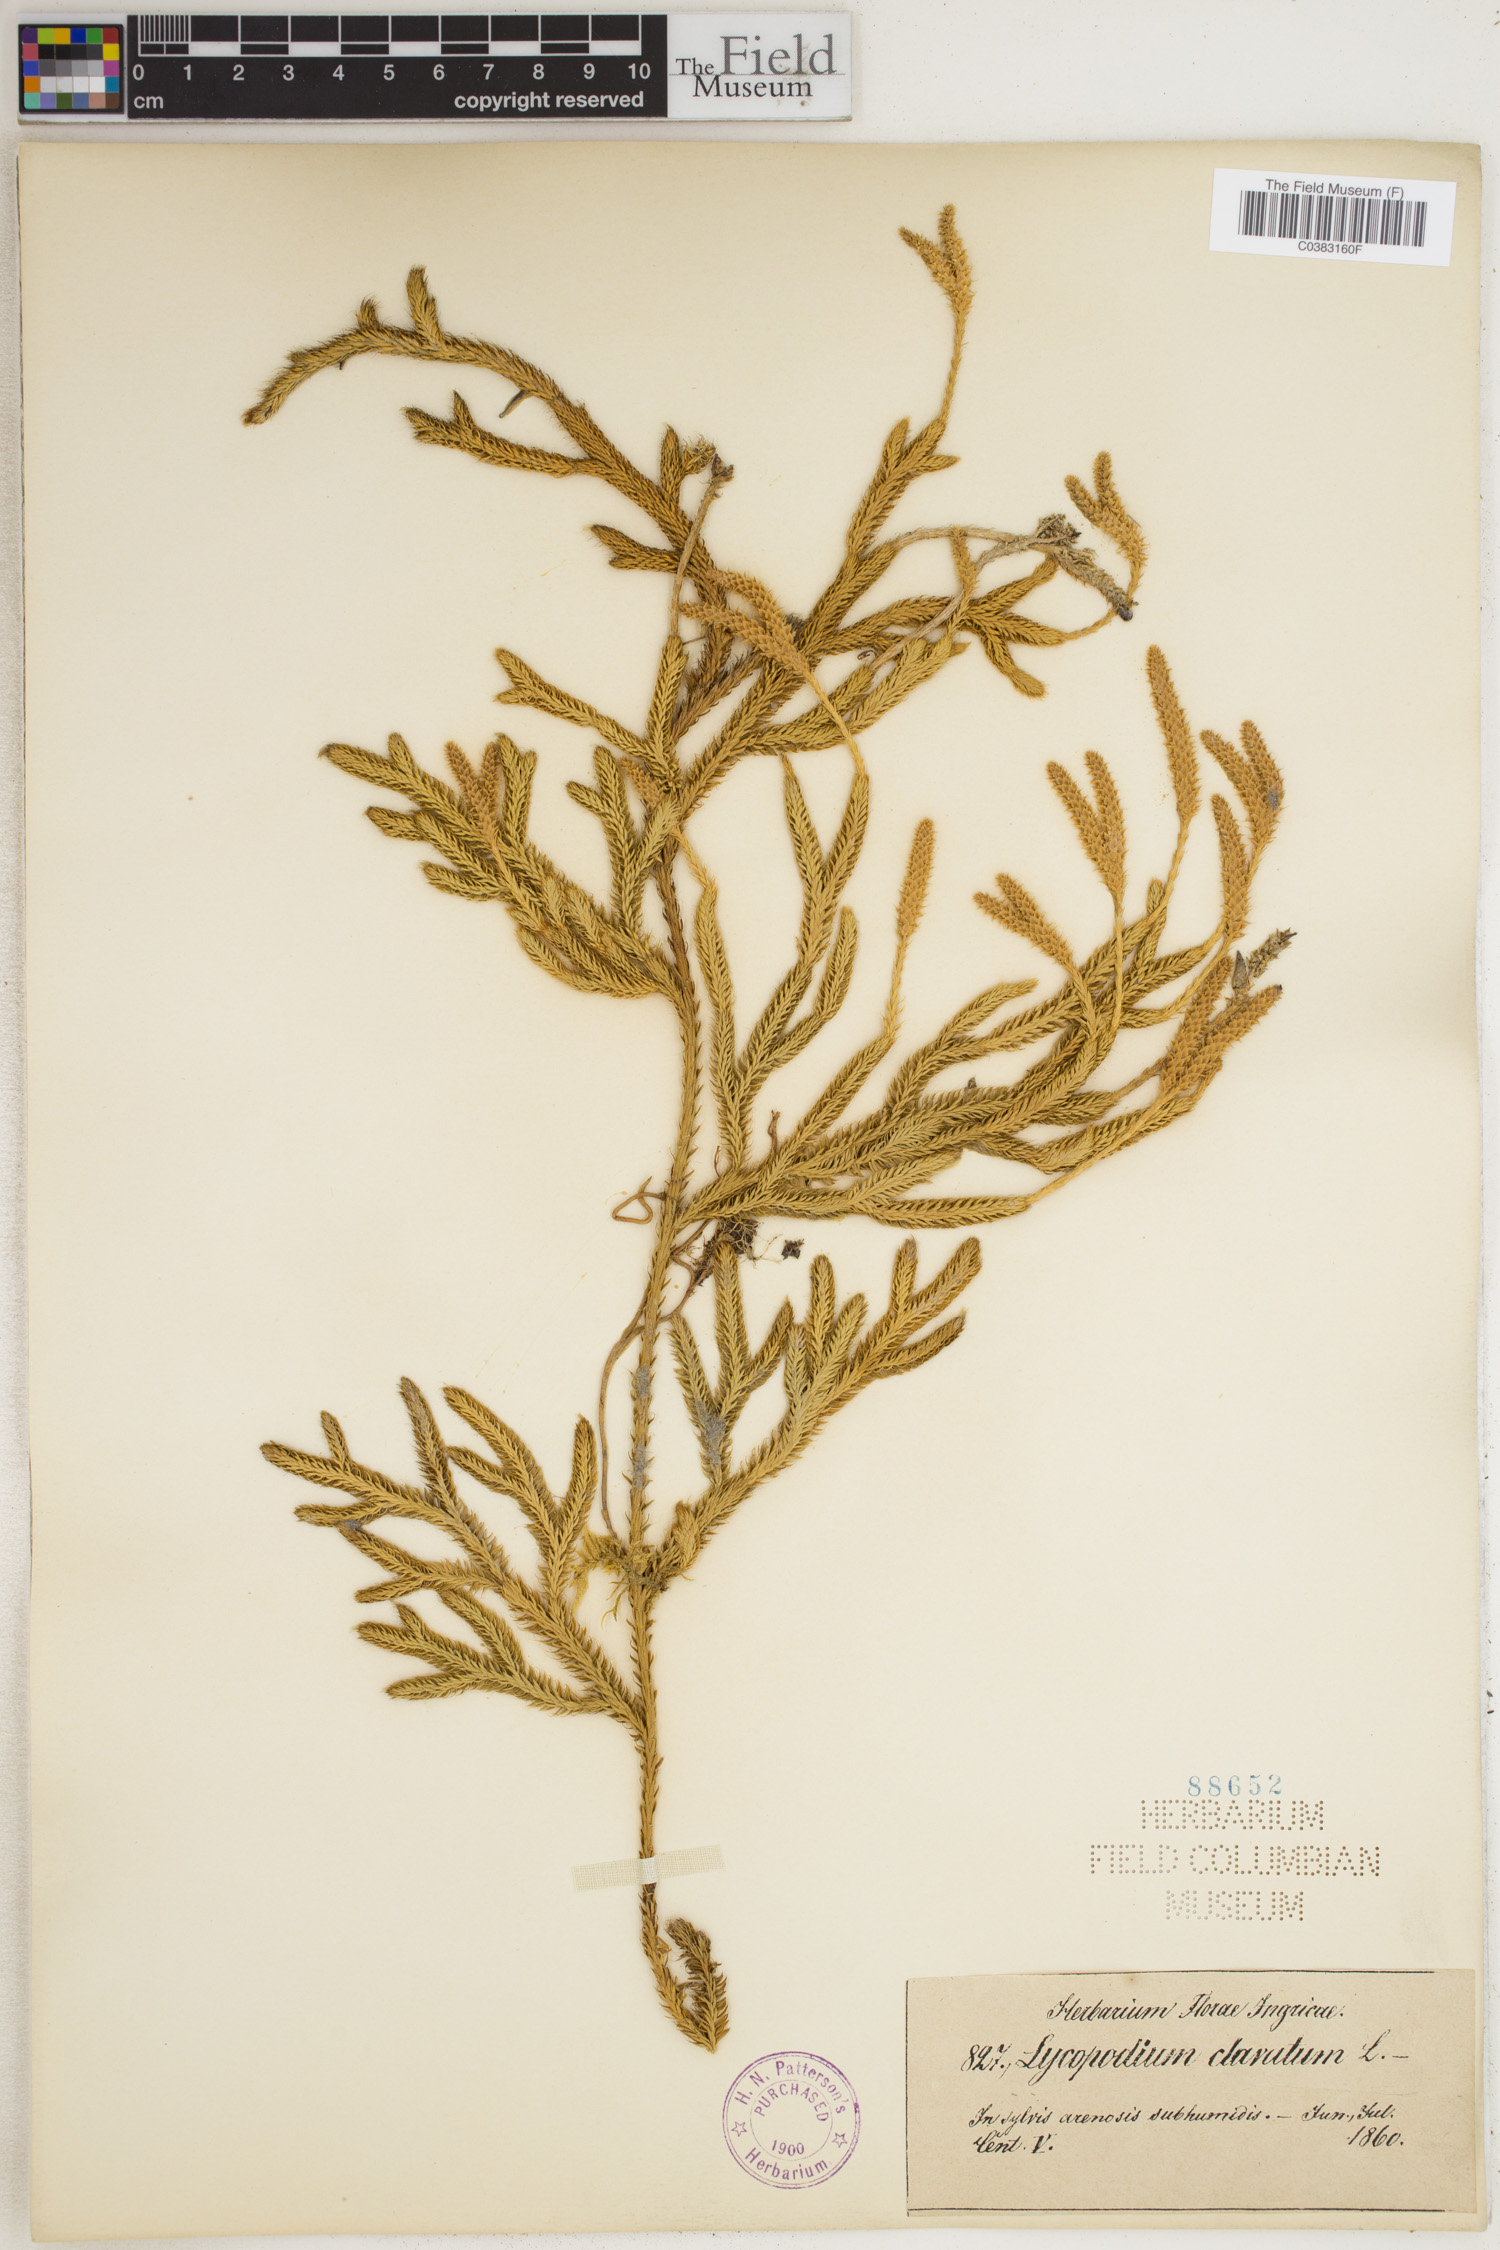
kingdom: Plantae
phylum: Tracheophyta
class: Lycopodiopsida
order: Lycopodiales
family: Lycopodiaceae
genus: Lycopodium
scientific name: Lycopodium clavatum
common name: Stag's-horn clubmoss
